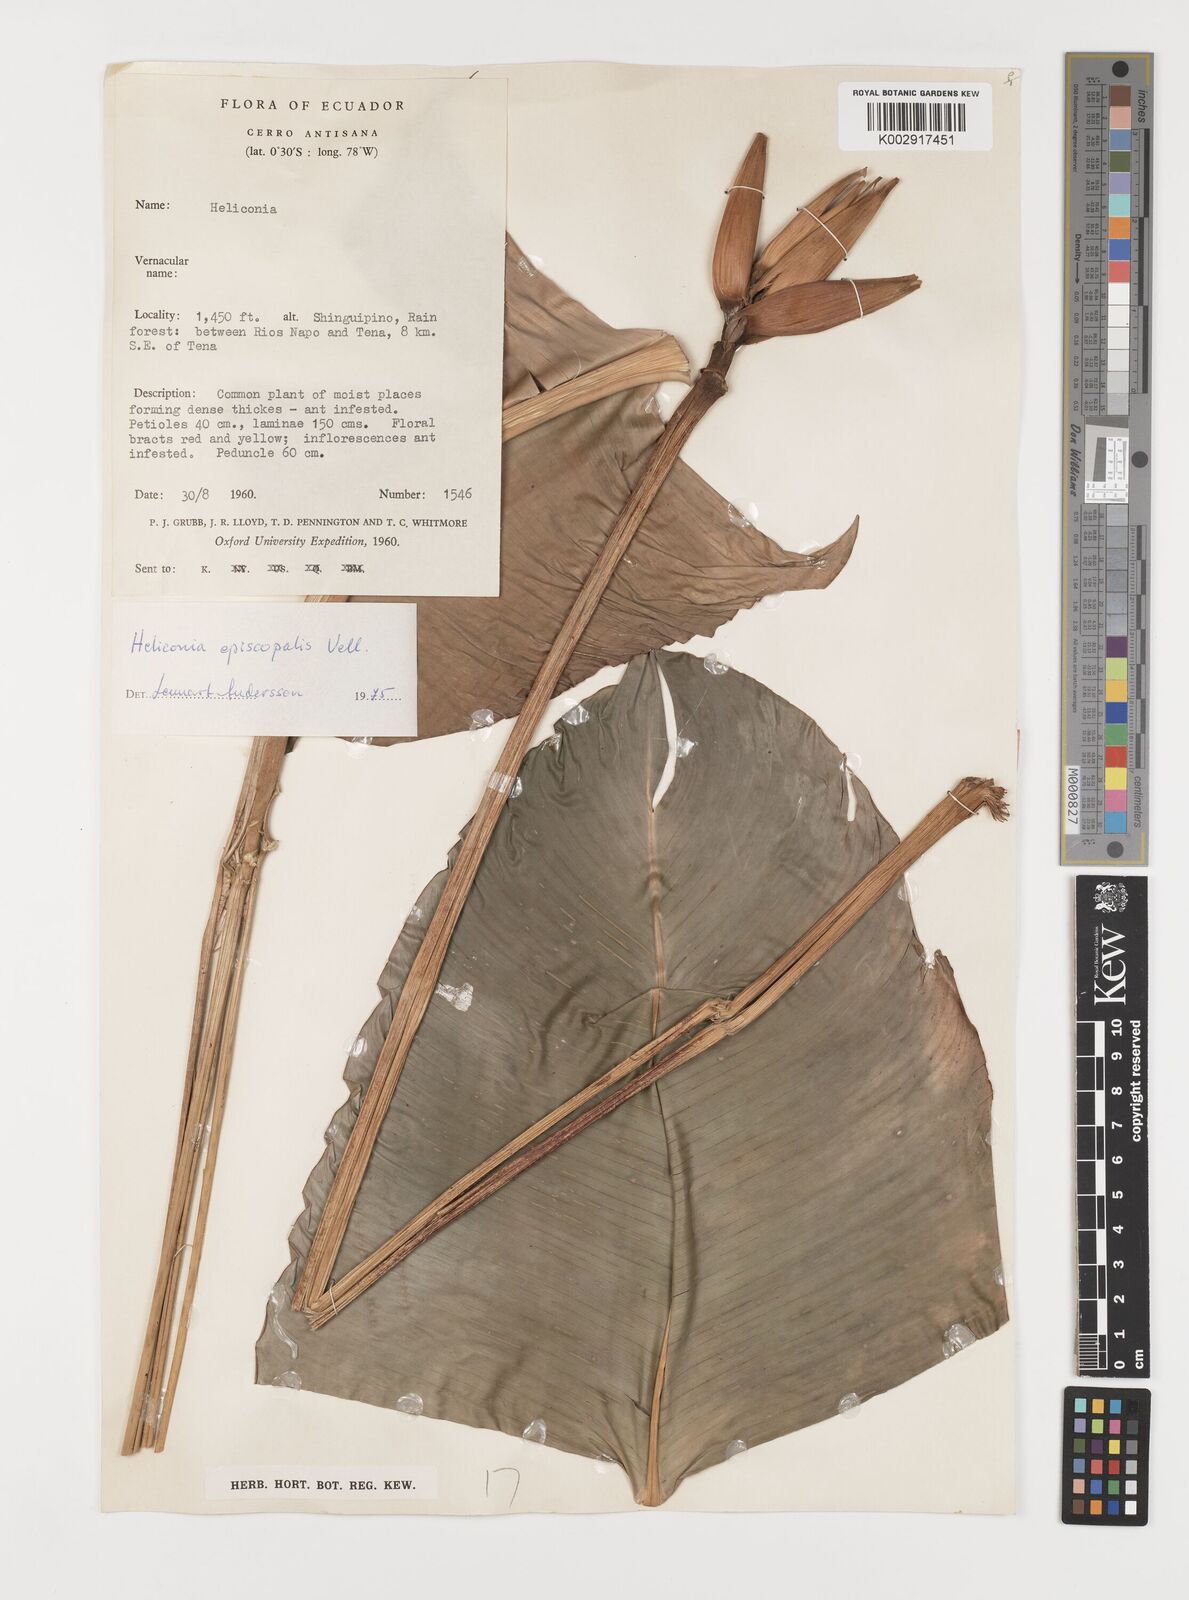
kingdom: Plantae
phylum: Tracheophyta
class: Liliopsida
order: Zingiberales
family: Heliconiaceae
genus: Heliconia
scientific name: Heliconia episcopalis
